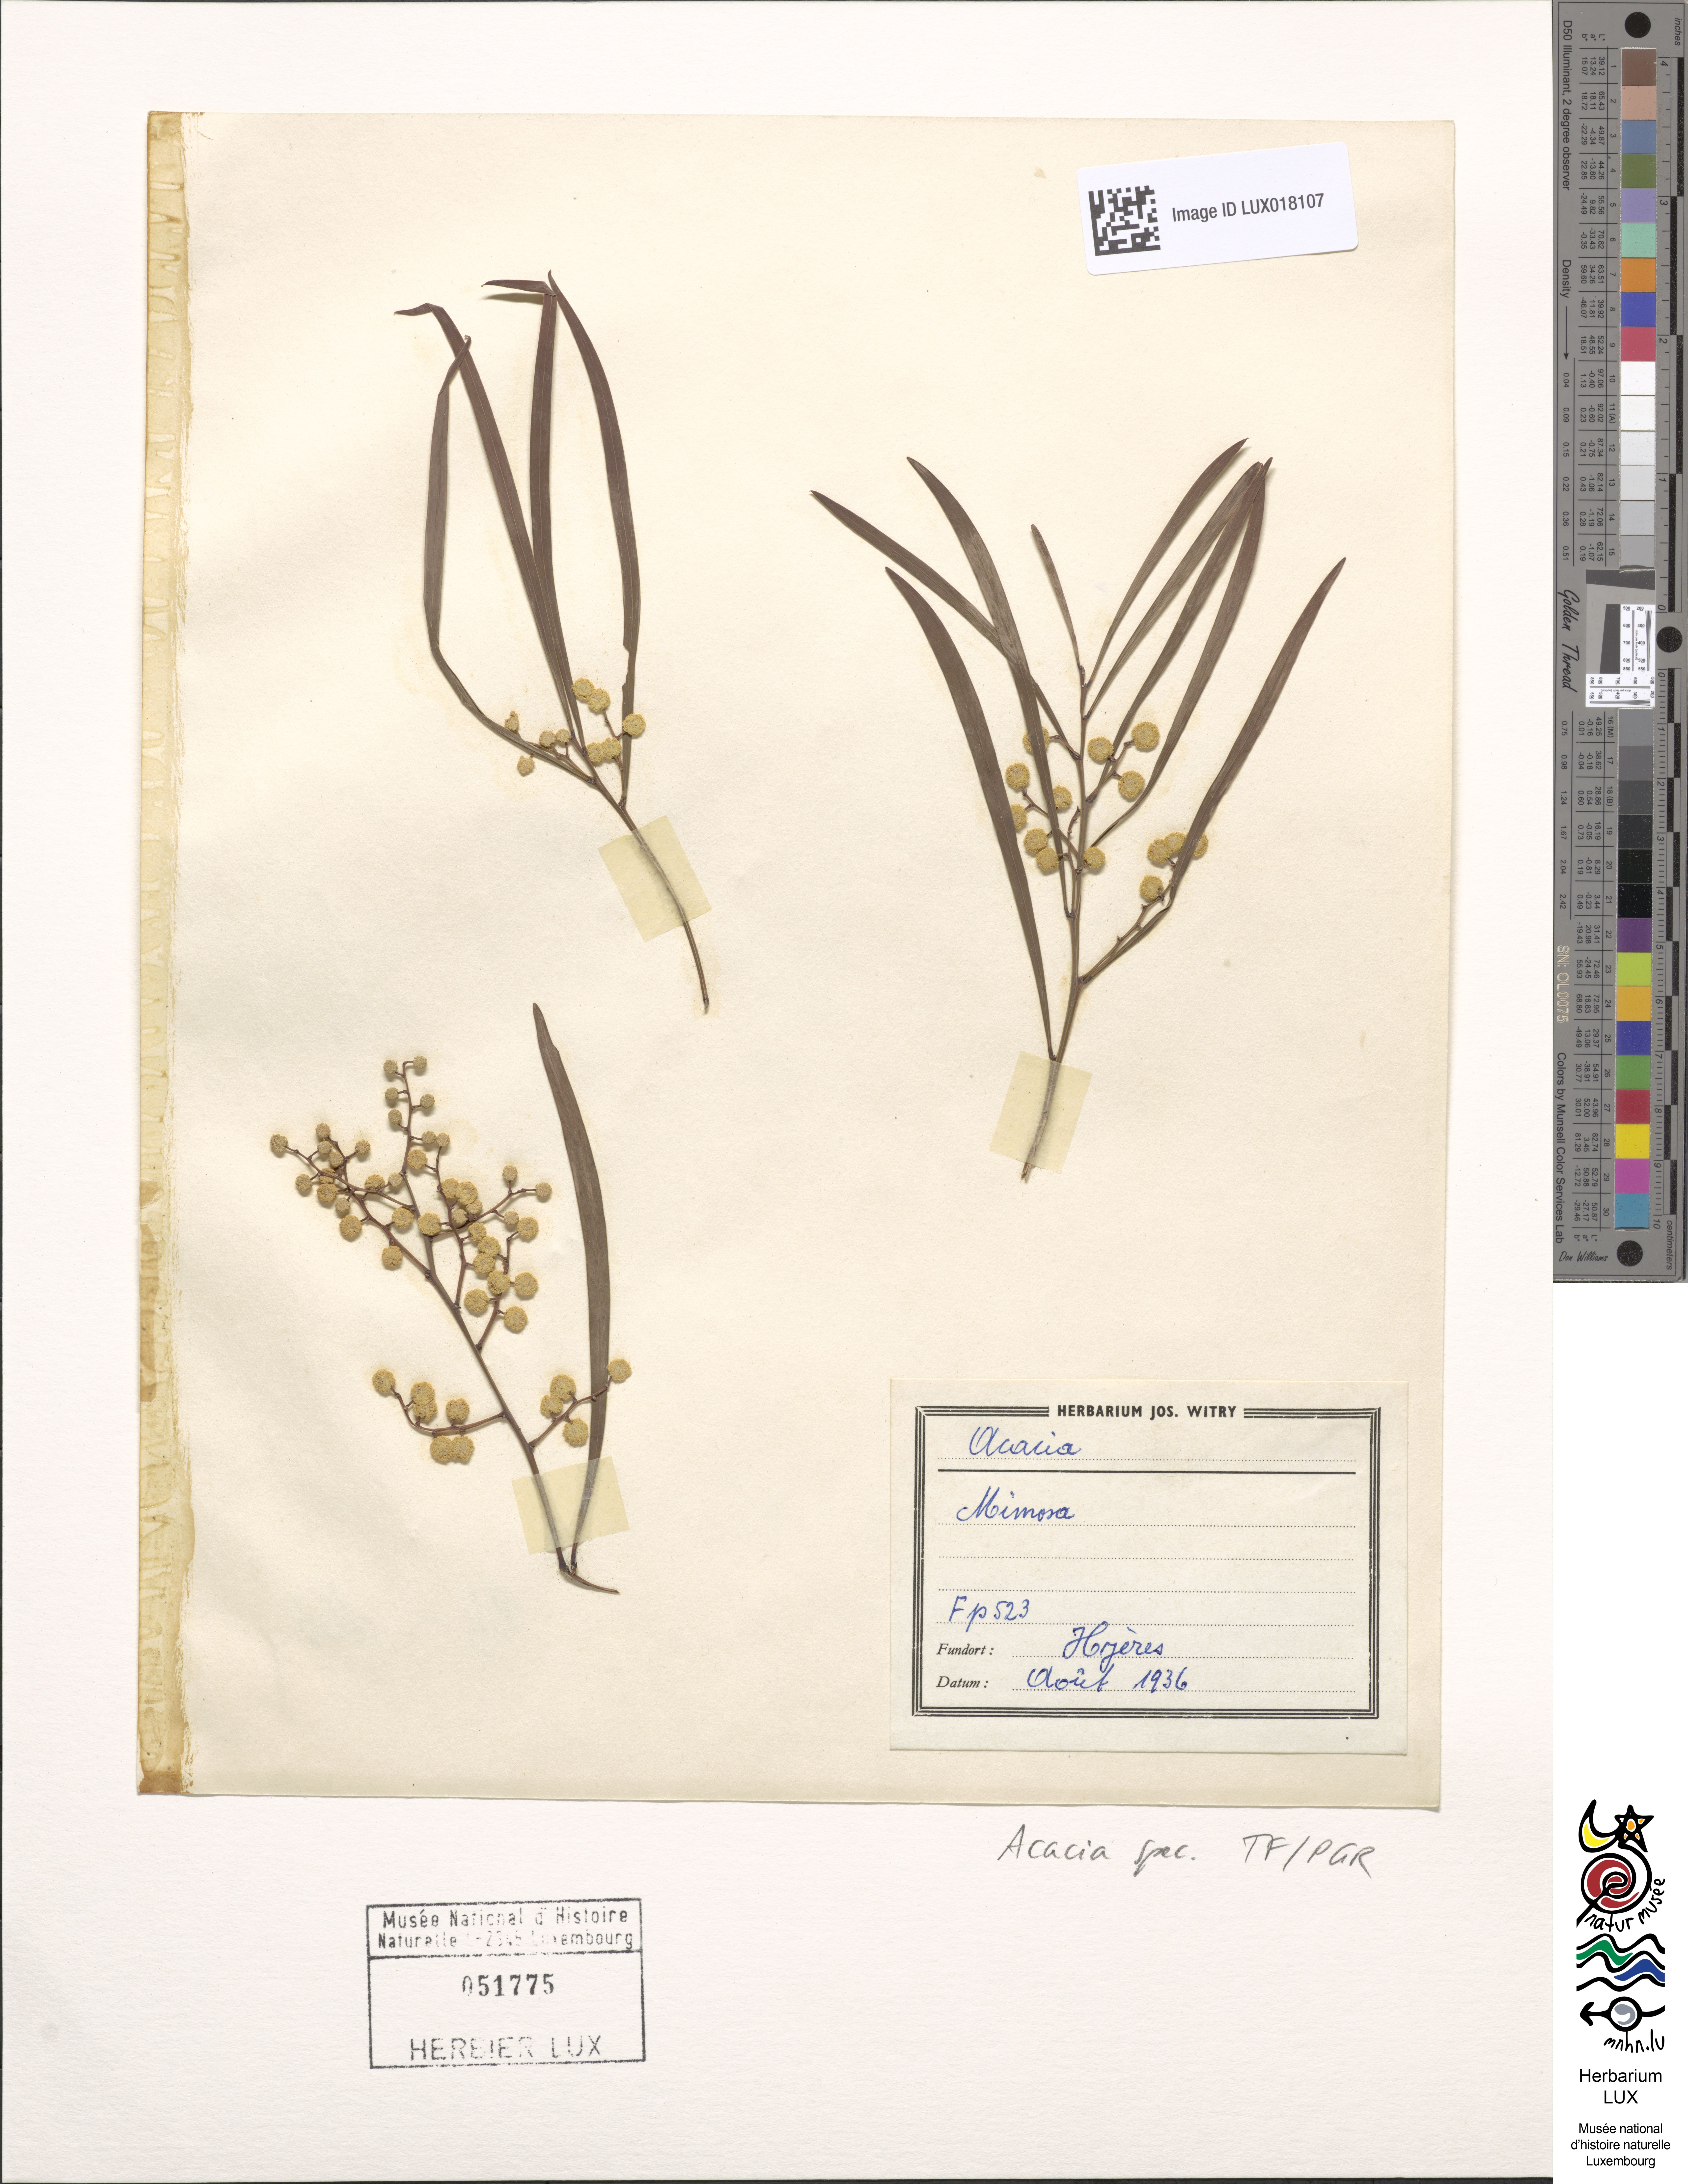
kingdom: Plantae
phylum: Tracheophyta
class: Magnoliopsida
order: Fabales
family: Fabaceae
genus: Acacia
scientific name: Acacia
